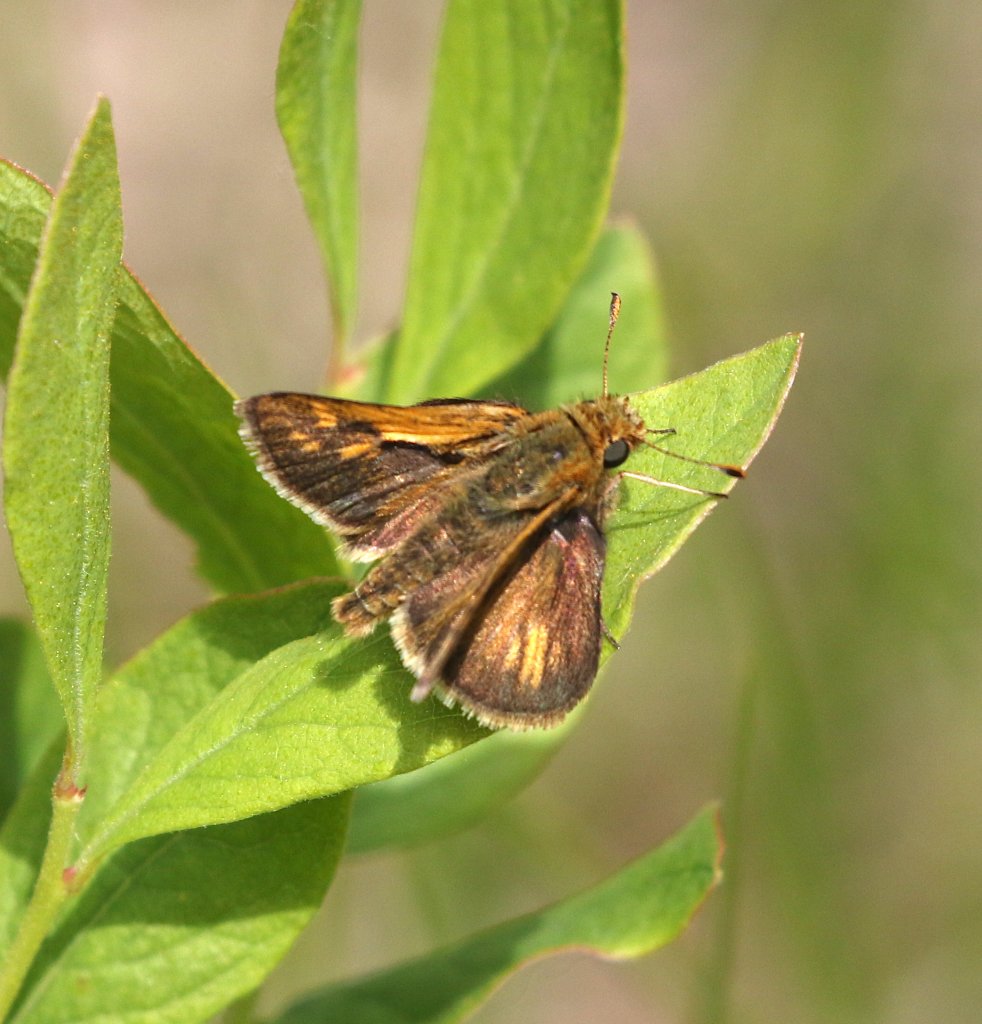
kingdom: Animalia
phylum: Arthropoda
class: Insecta
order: Lepidoptera
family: Hesperiidae
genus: Polites
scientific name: Polites coras
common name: Peck's Skipper
